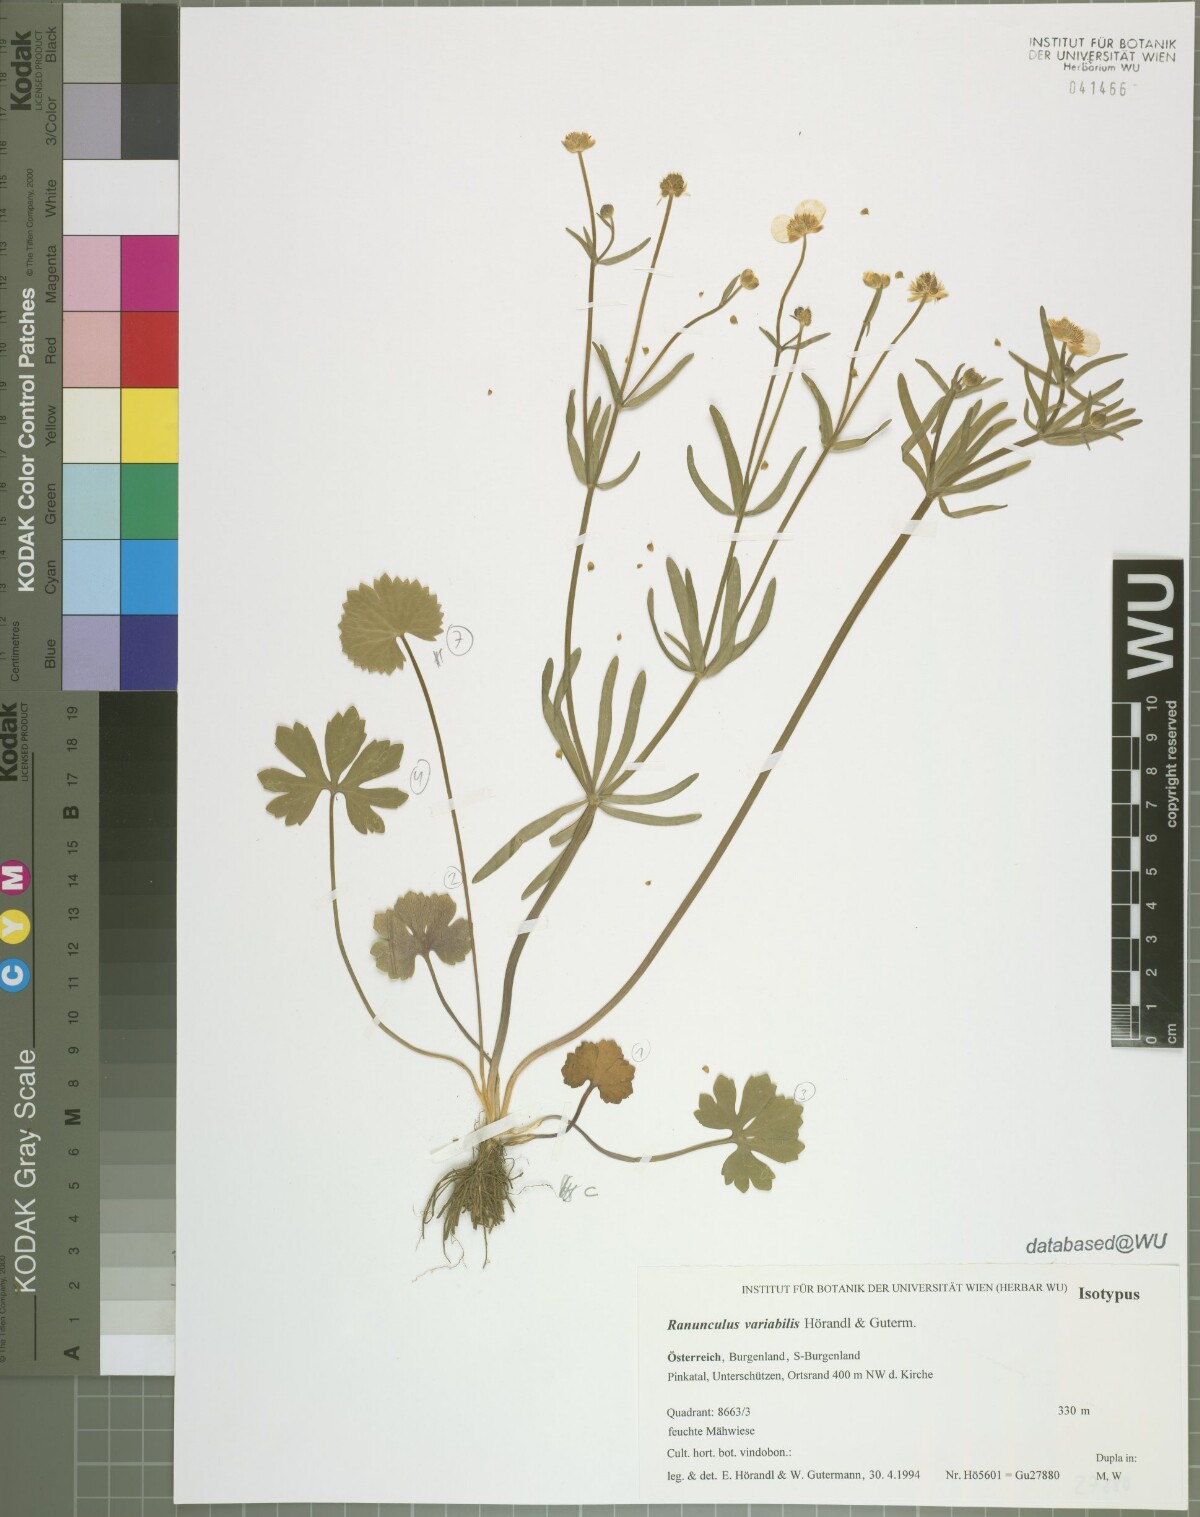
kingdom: Plantae
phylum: Tracheophyta
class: Magnoliopsida
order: Ranunculales
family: Ranunculaceae
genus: Ranunculus
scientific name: Ranunculus variabilis
